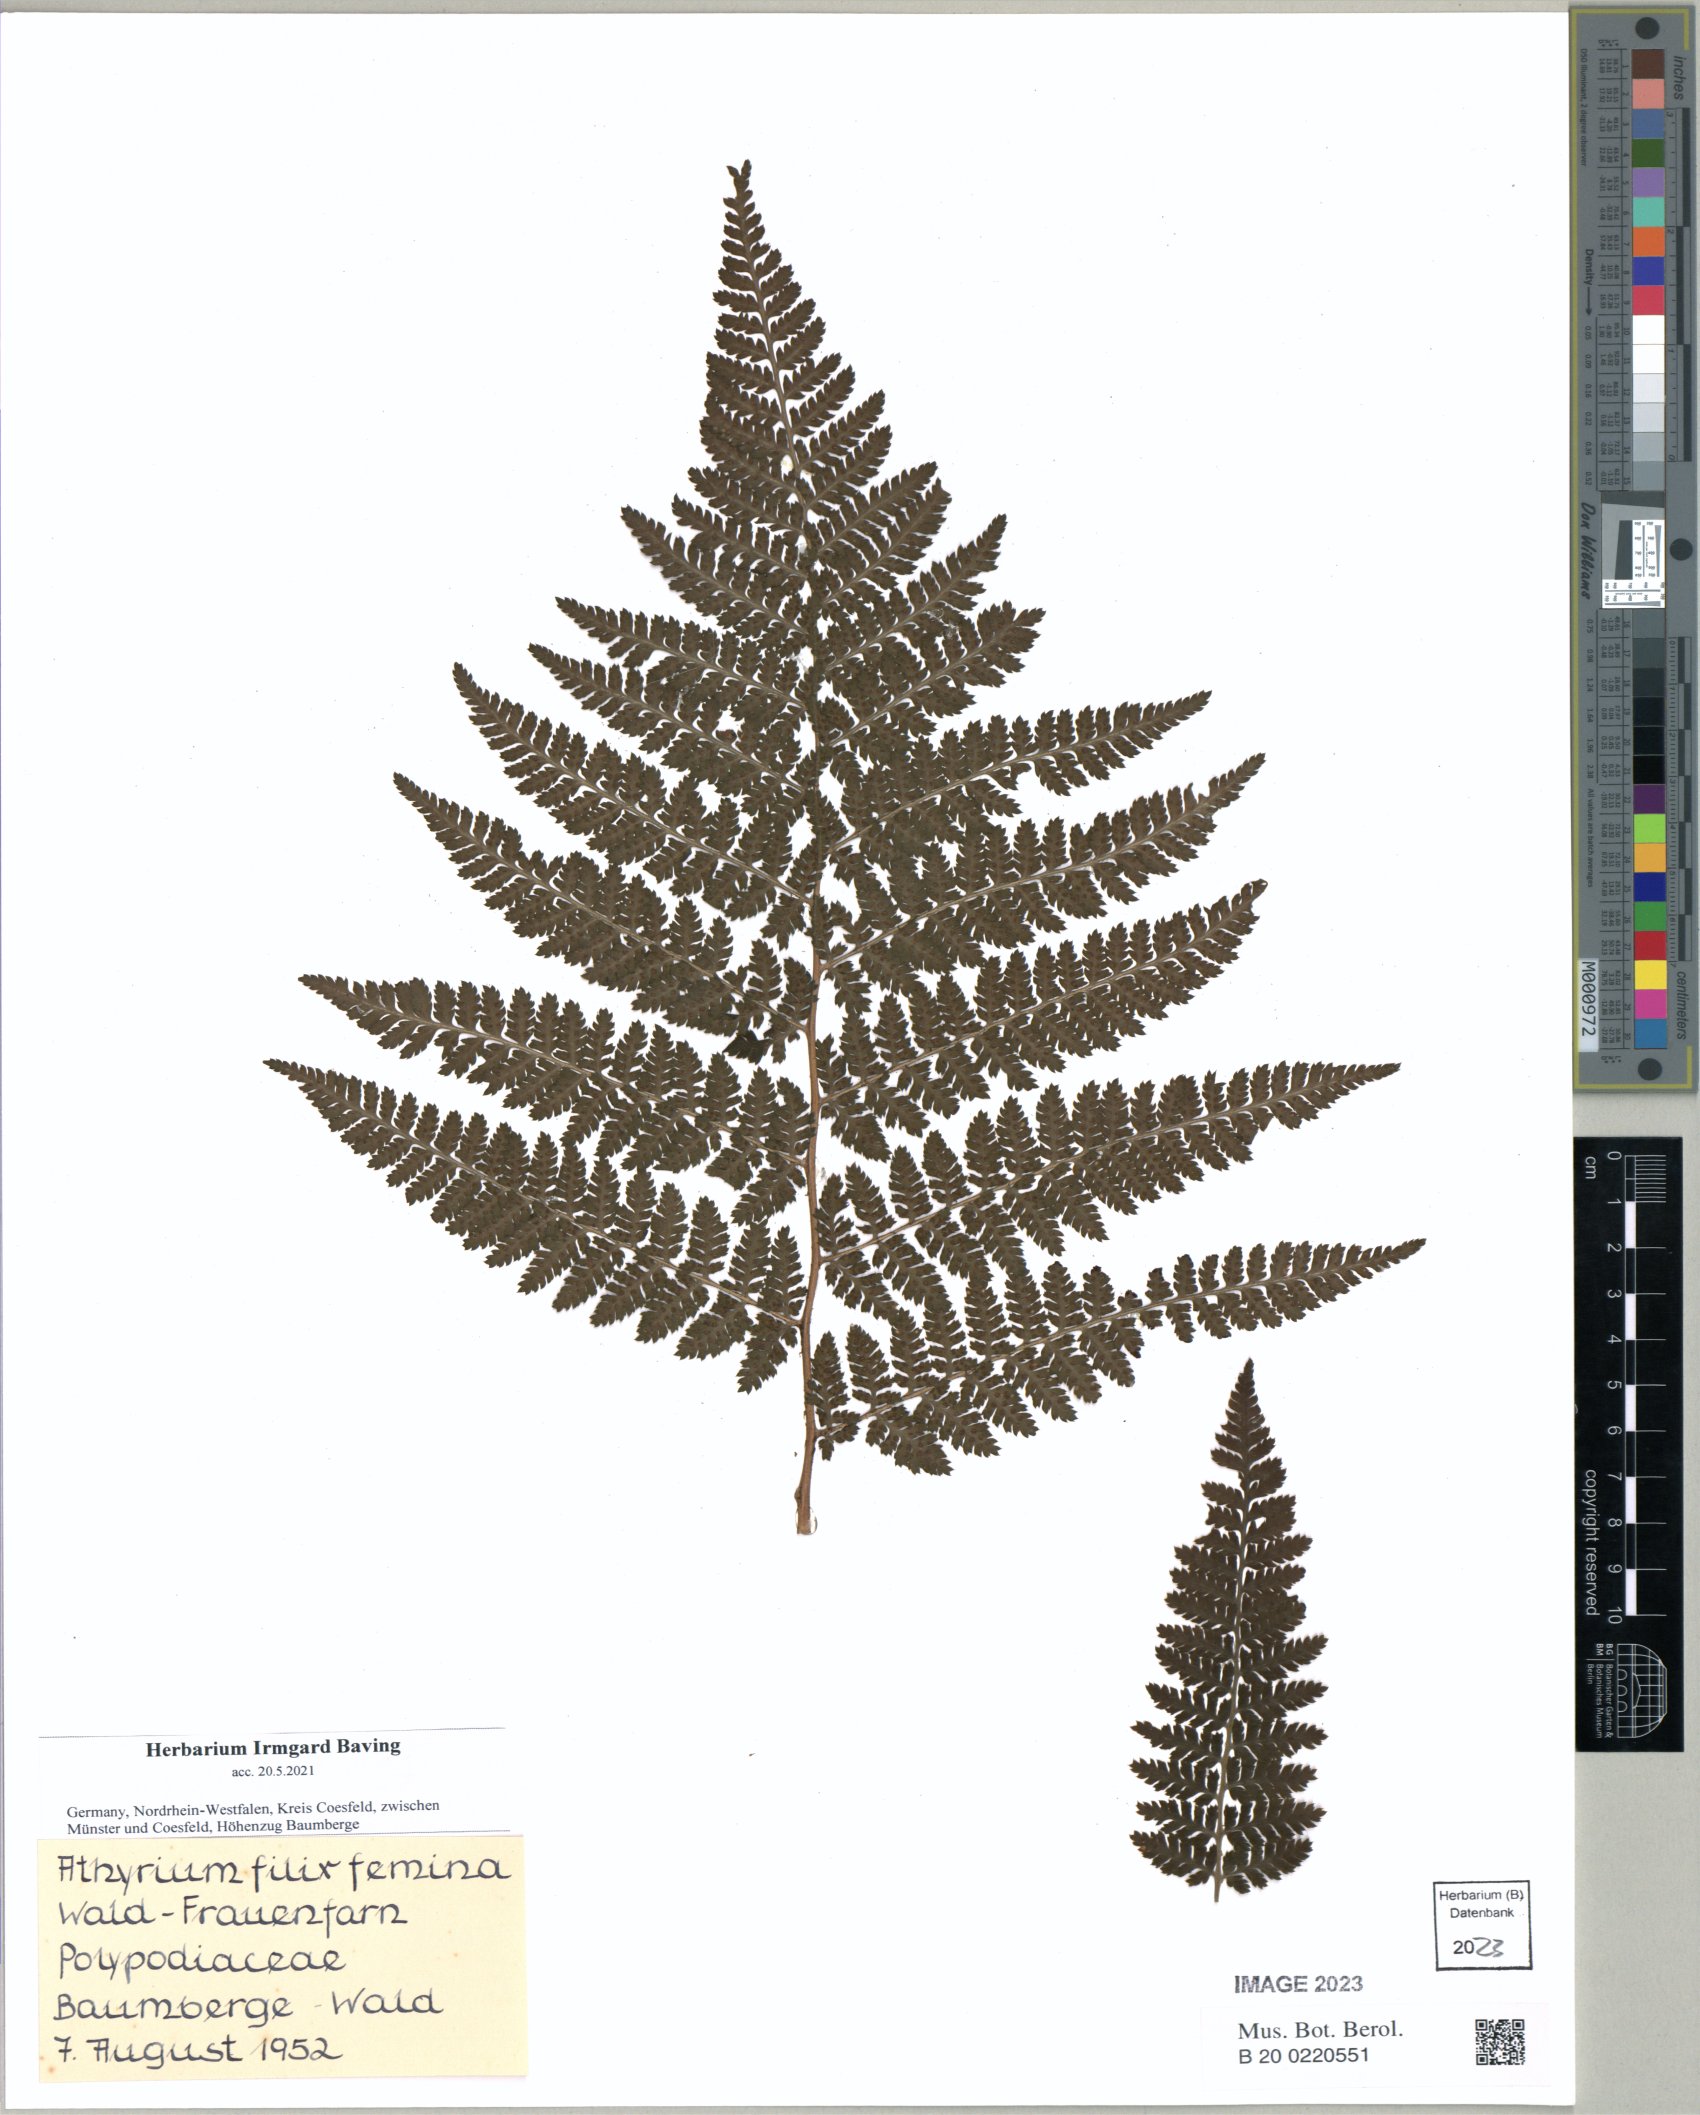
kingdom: Plantae
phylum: Tracheophyta
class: Polypodiopsida
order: Polypodiales
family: Dryopteridaceae
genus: Dryopteris
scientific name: Dryopteris dilatata
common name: Broad buckler-fern
